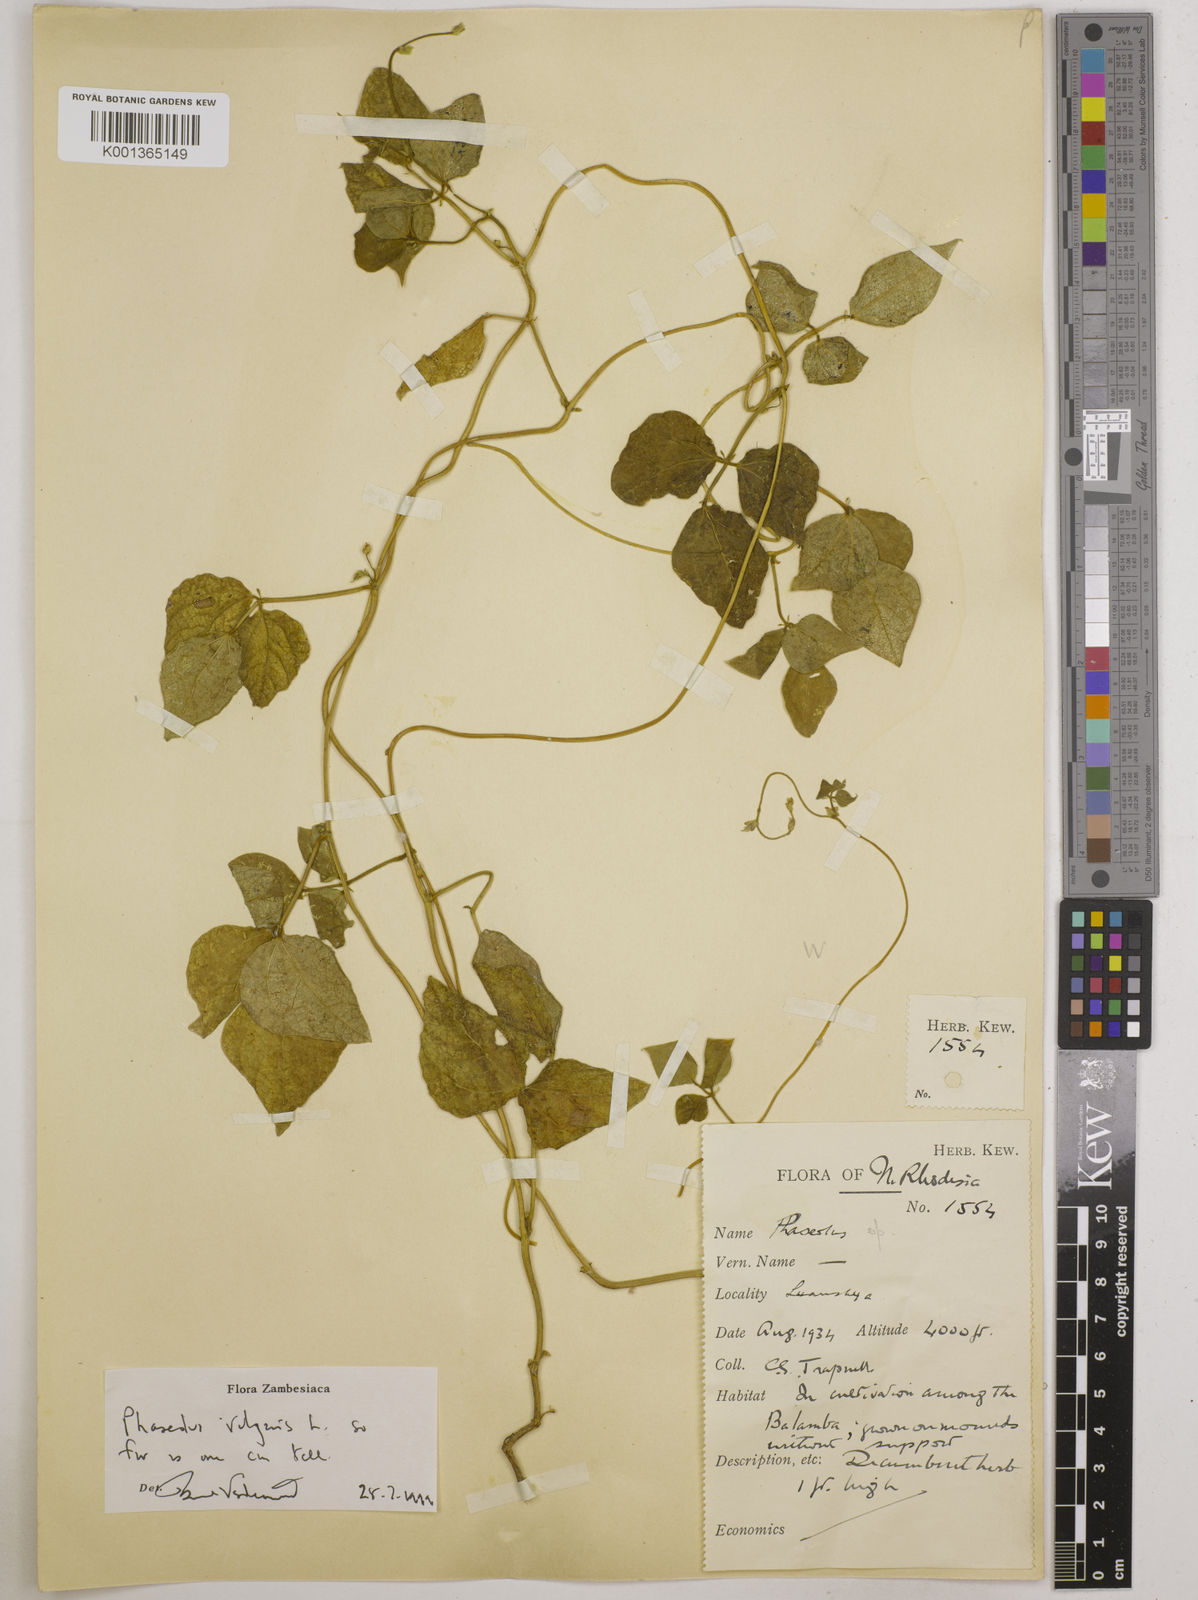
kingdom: Plantae
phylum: Tracheophyta
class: Magnoliopsida
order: Fabales
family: Fabaceae
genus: Phaseolus
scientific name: Phaseolus vulgaris
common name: Bean
